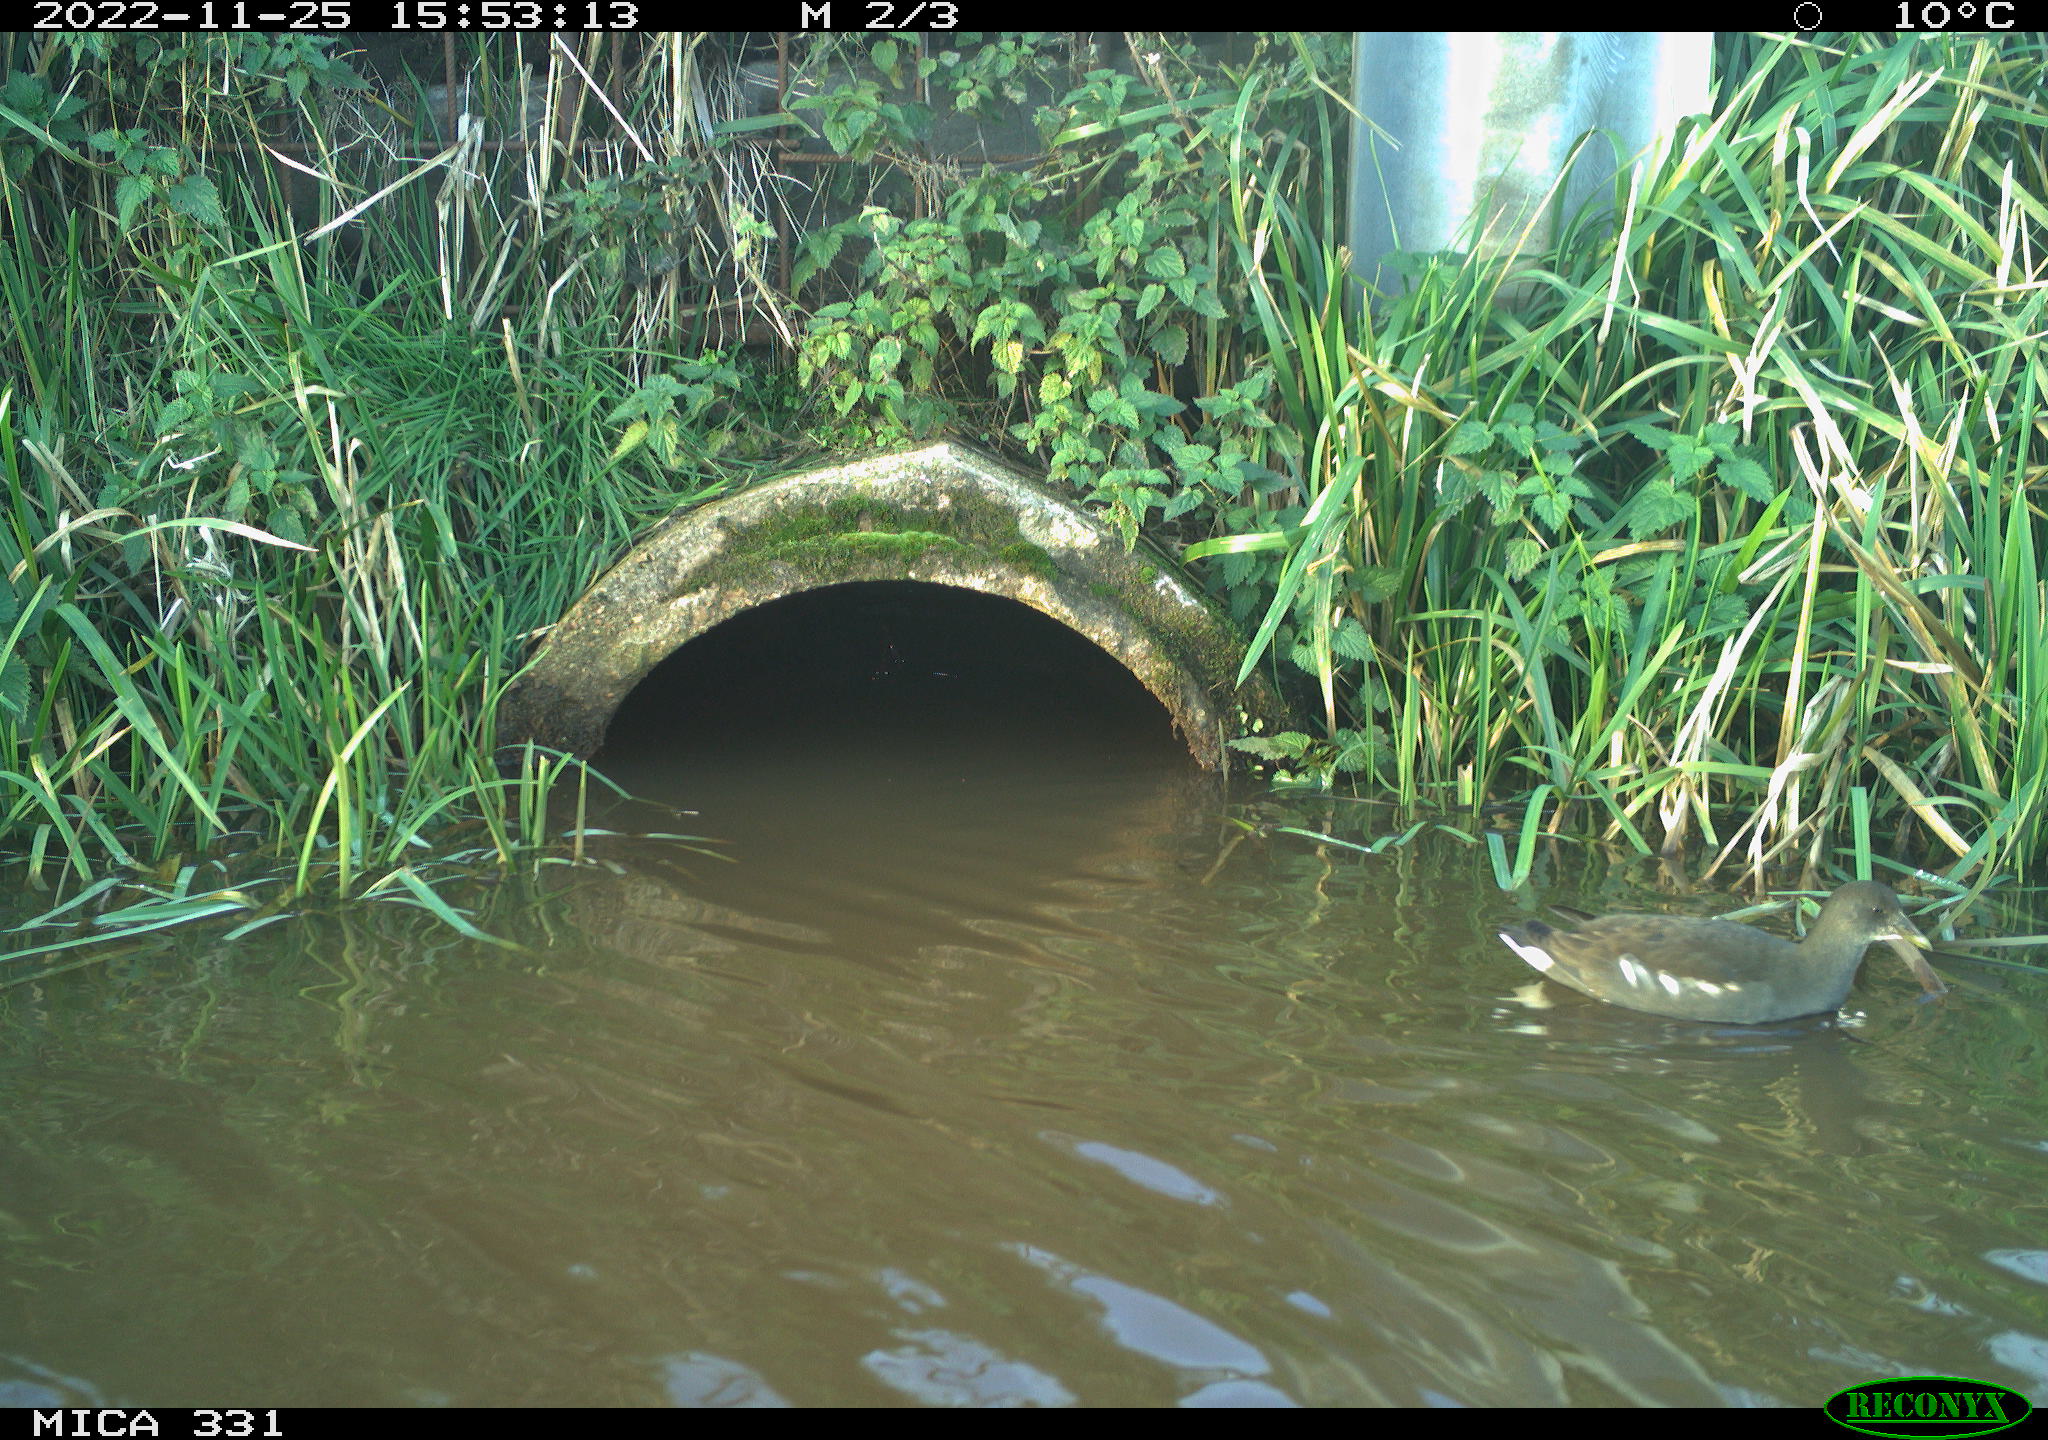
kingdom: Animalia
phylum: Chordata
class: Aves
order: Gruiformes
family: Rallidae
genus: Gallinula
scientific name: Gallinula chloropus
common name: Common moorhen
